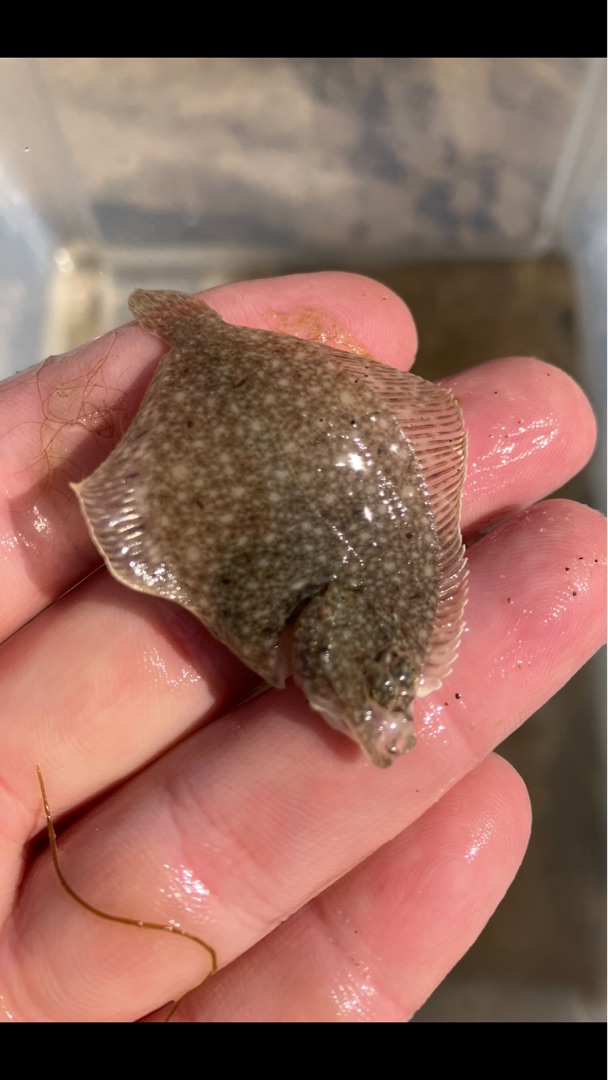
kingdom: Animalia
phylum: Chordata
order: Pleuronectiformes
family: Pleuronectidae
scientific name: Pleuronectidae
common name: Rødspættefamilien
